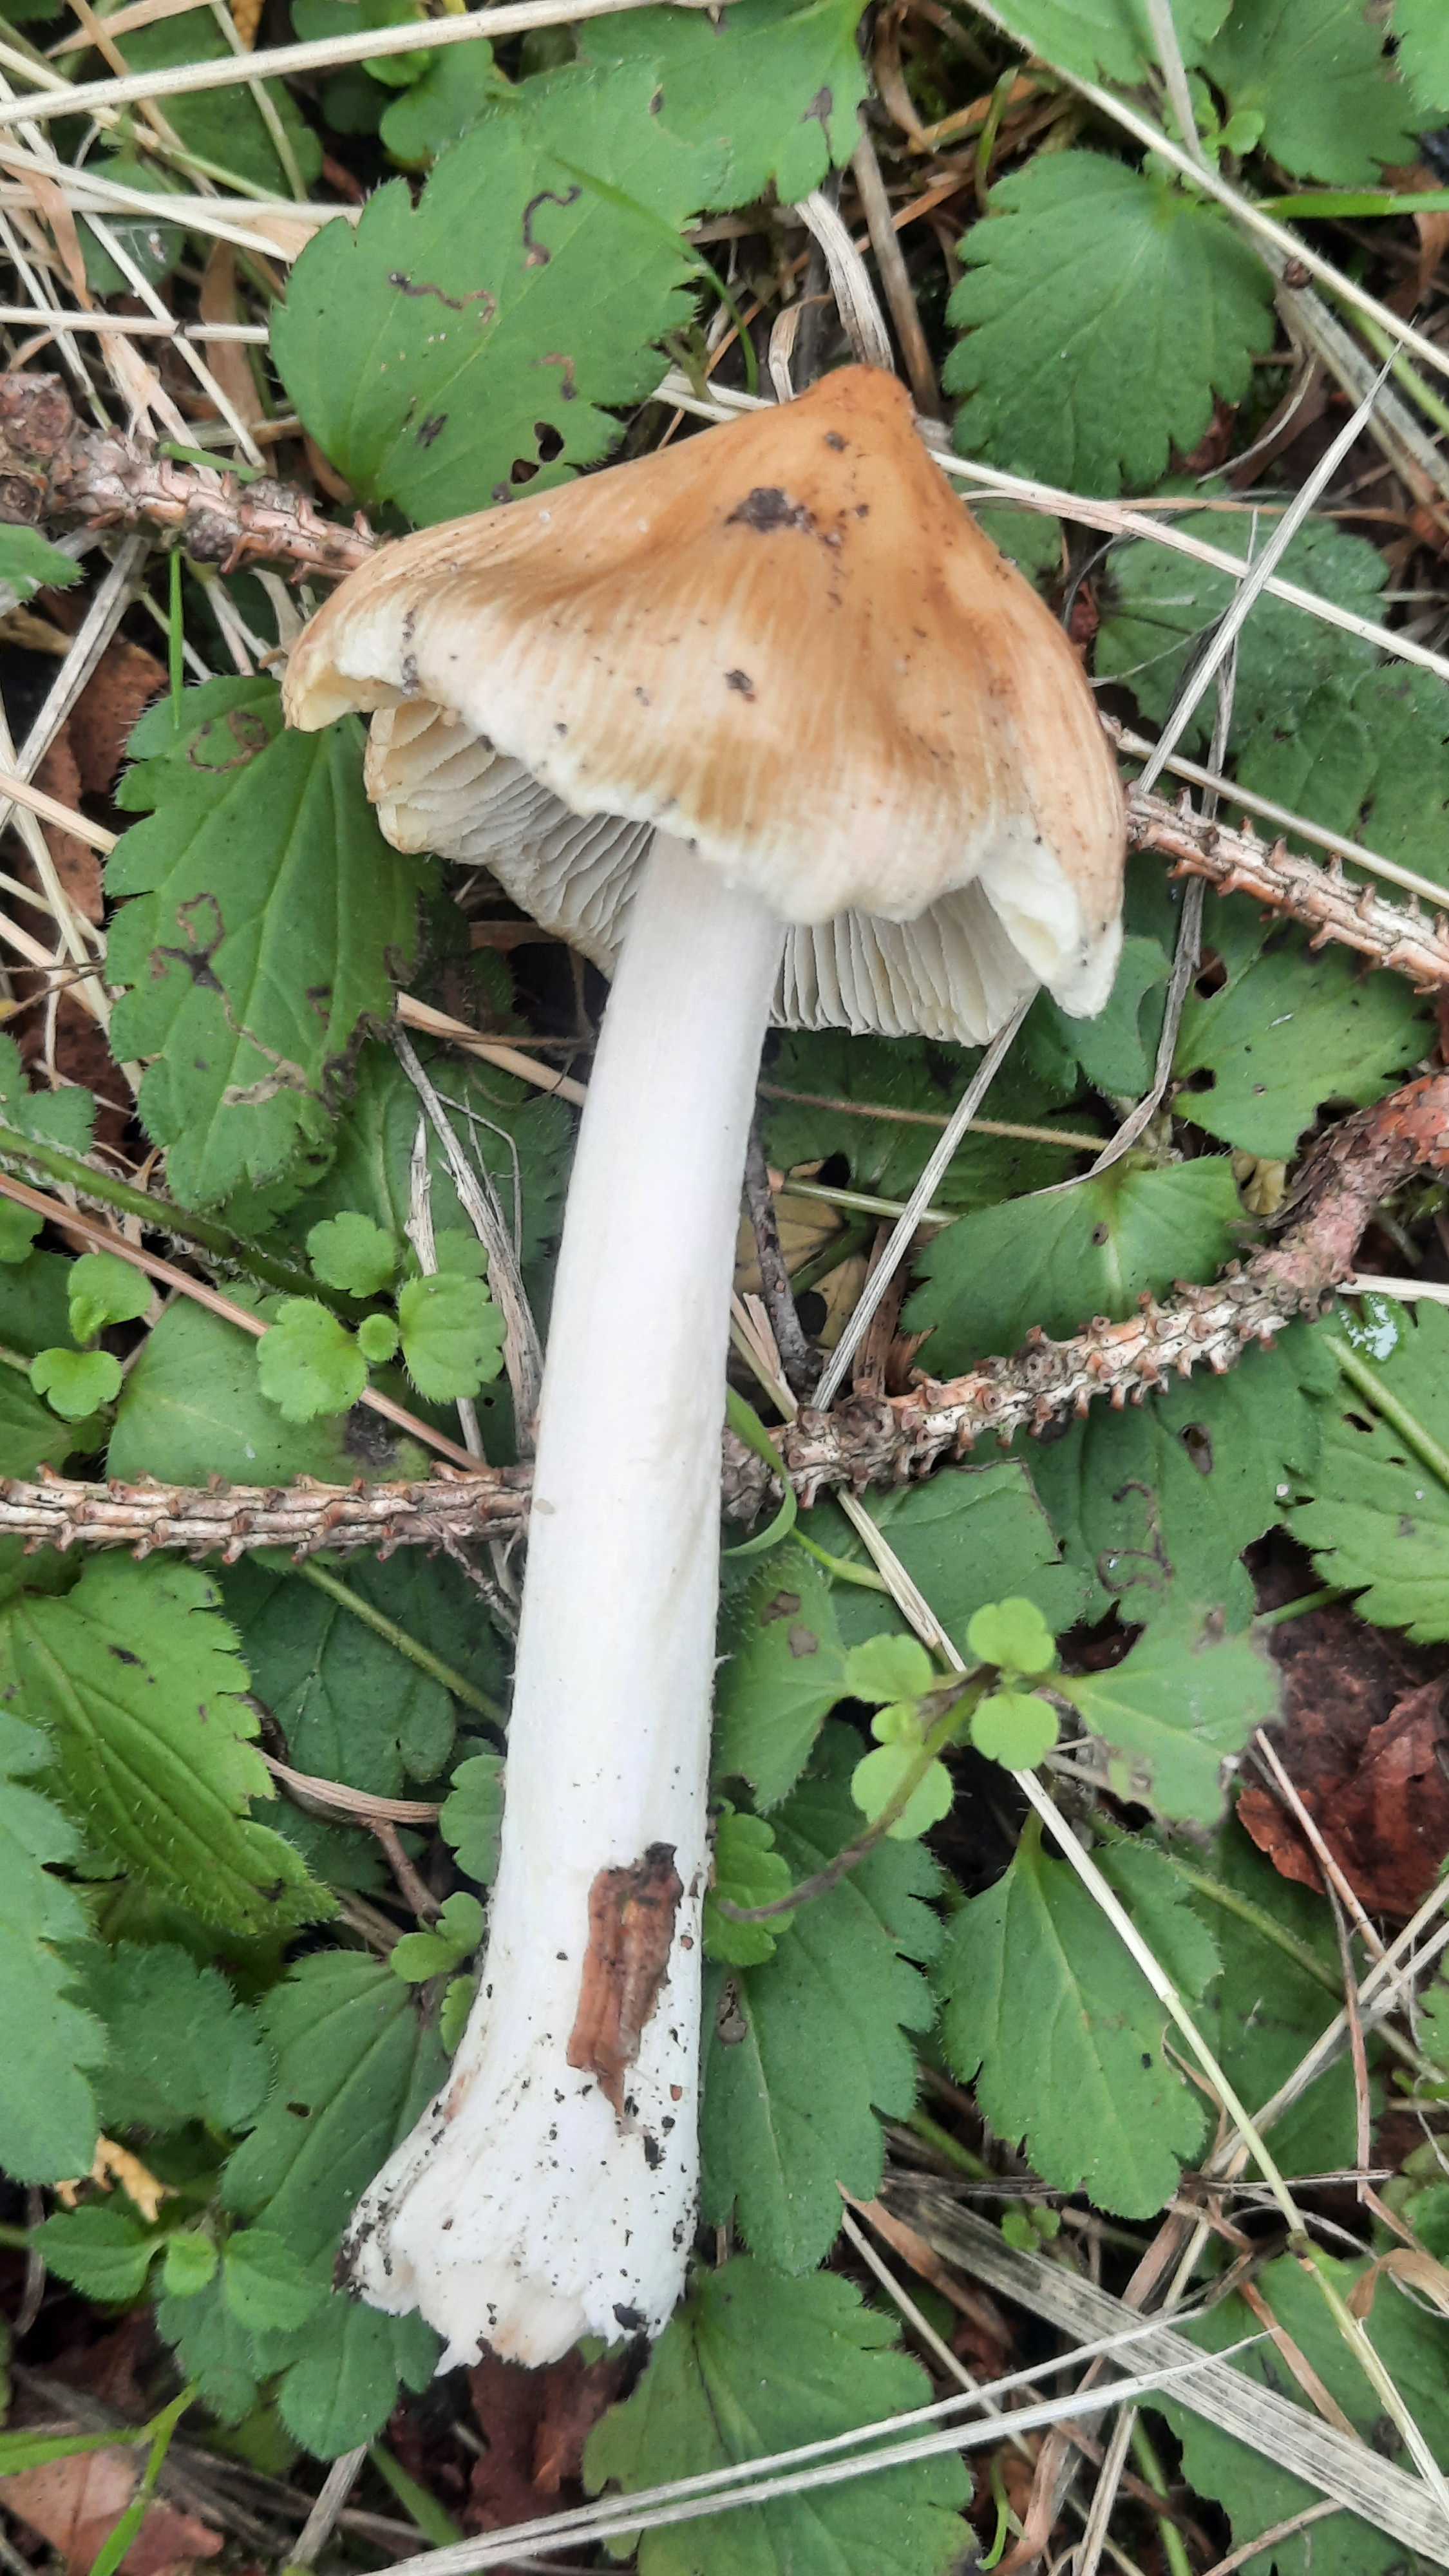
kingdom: Fungi
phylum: Basidiomycota
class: Agaricomycetes
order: Agaricales
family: Inocybaceae
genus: Inocybe
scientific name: Inocybe
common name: trævlhat
